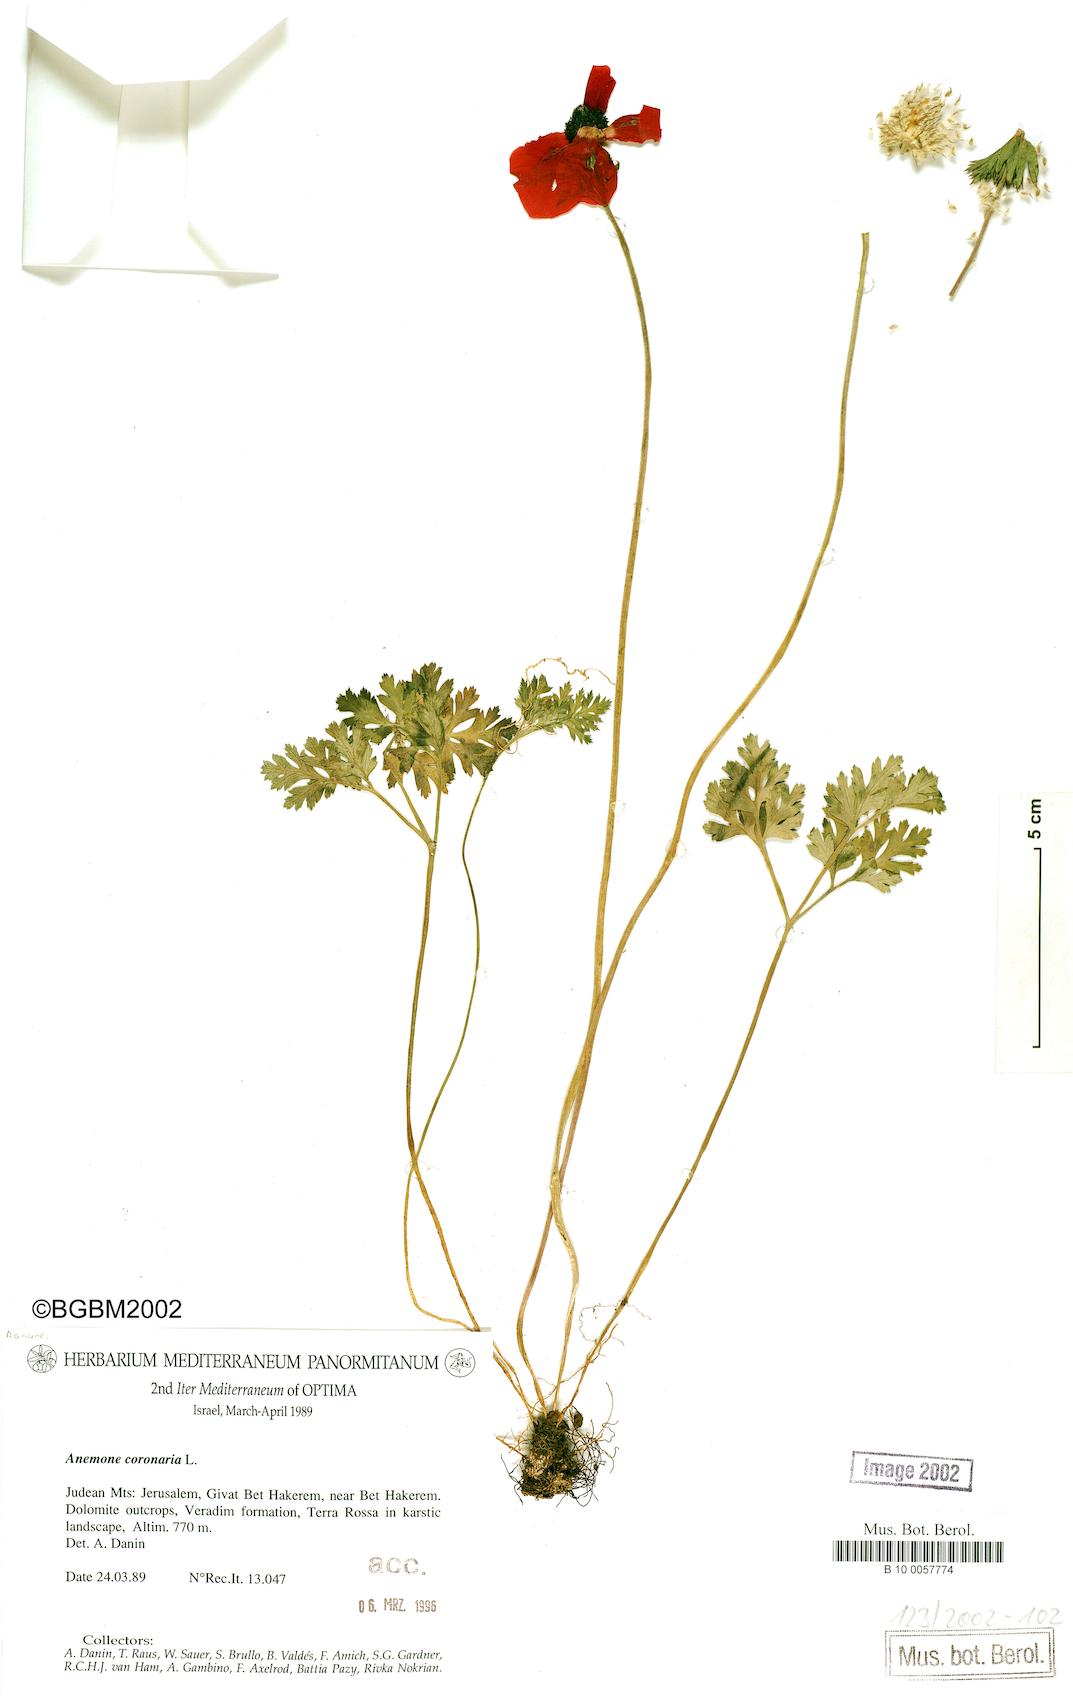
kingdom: Plantae
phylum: Tracheophyta
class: Magnoliopsida
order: Ranunculales
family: Ranunculaceae
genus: Anemone
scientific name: Anemone coronaria
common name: Poppy anemone
